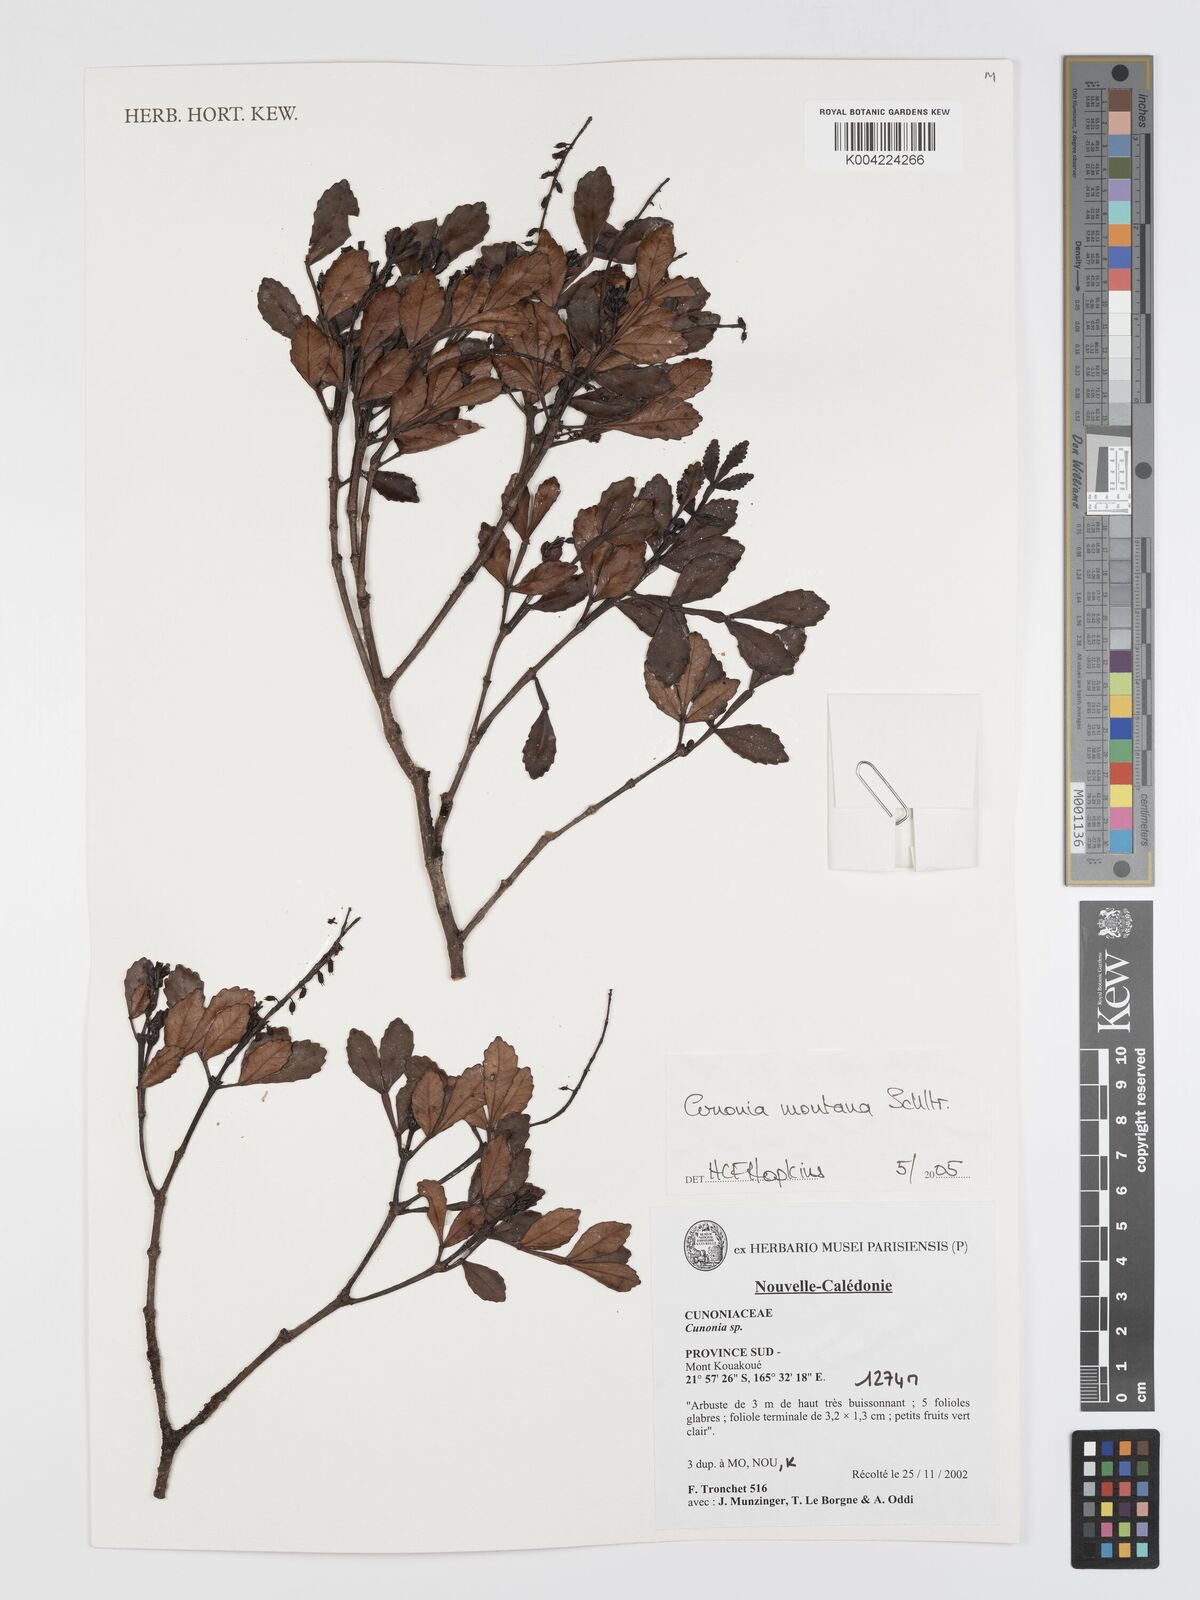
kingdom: Plantae
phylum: Tracheophyta
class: Magnoliopsida
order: Oxalidales
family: Cunoniaceae
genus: Cunonia
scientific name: Cunonia montana
